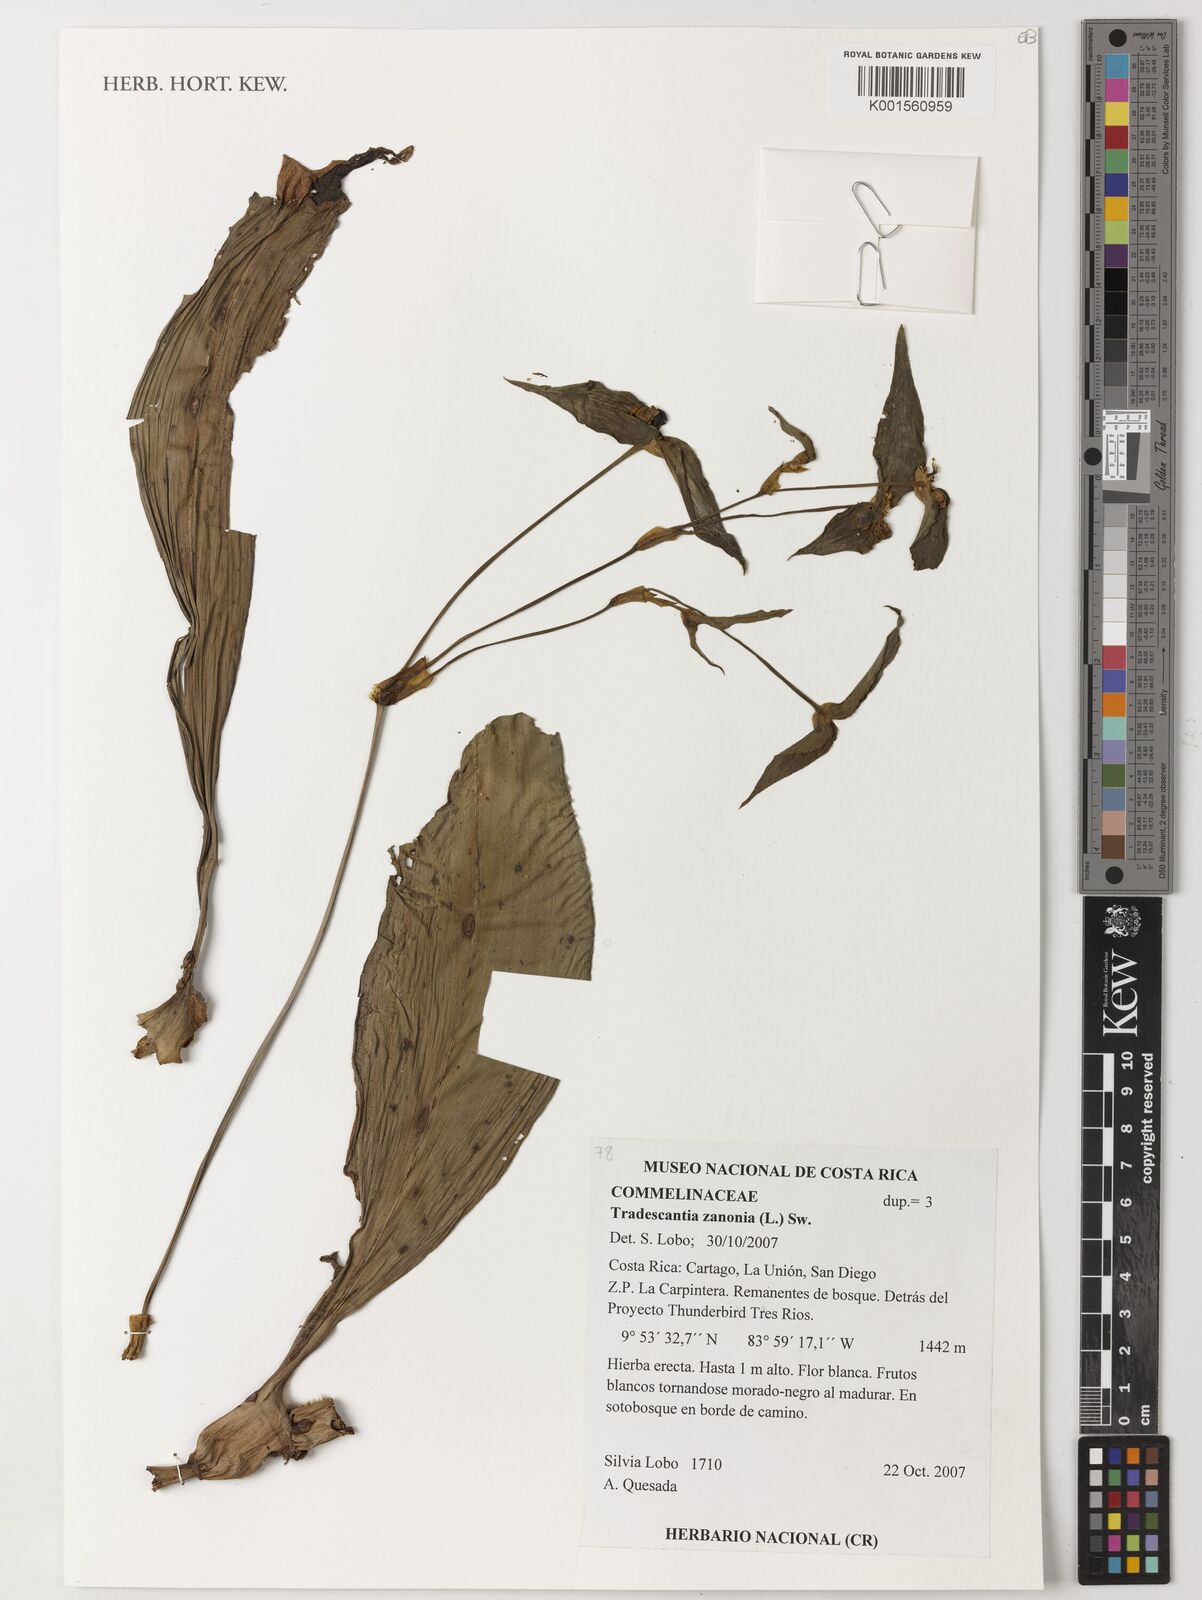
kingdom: Plantae
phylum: Tracheophyta
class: Liliopsida
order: Commelinales
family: Commelinaceae
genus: Tradescantia
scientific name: Tradescantia zanonia
